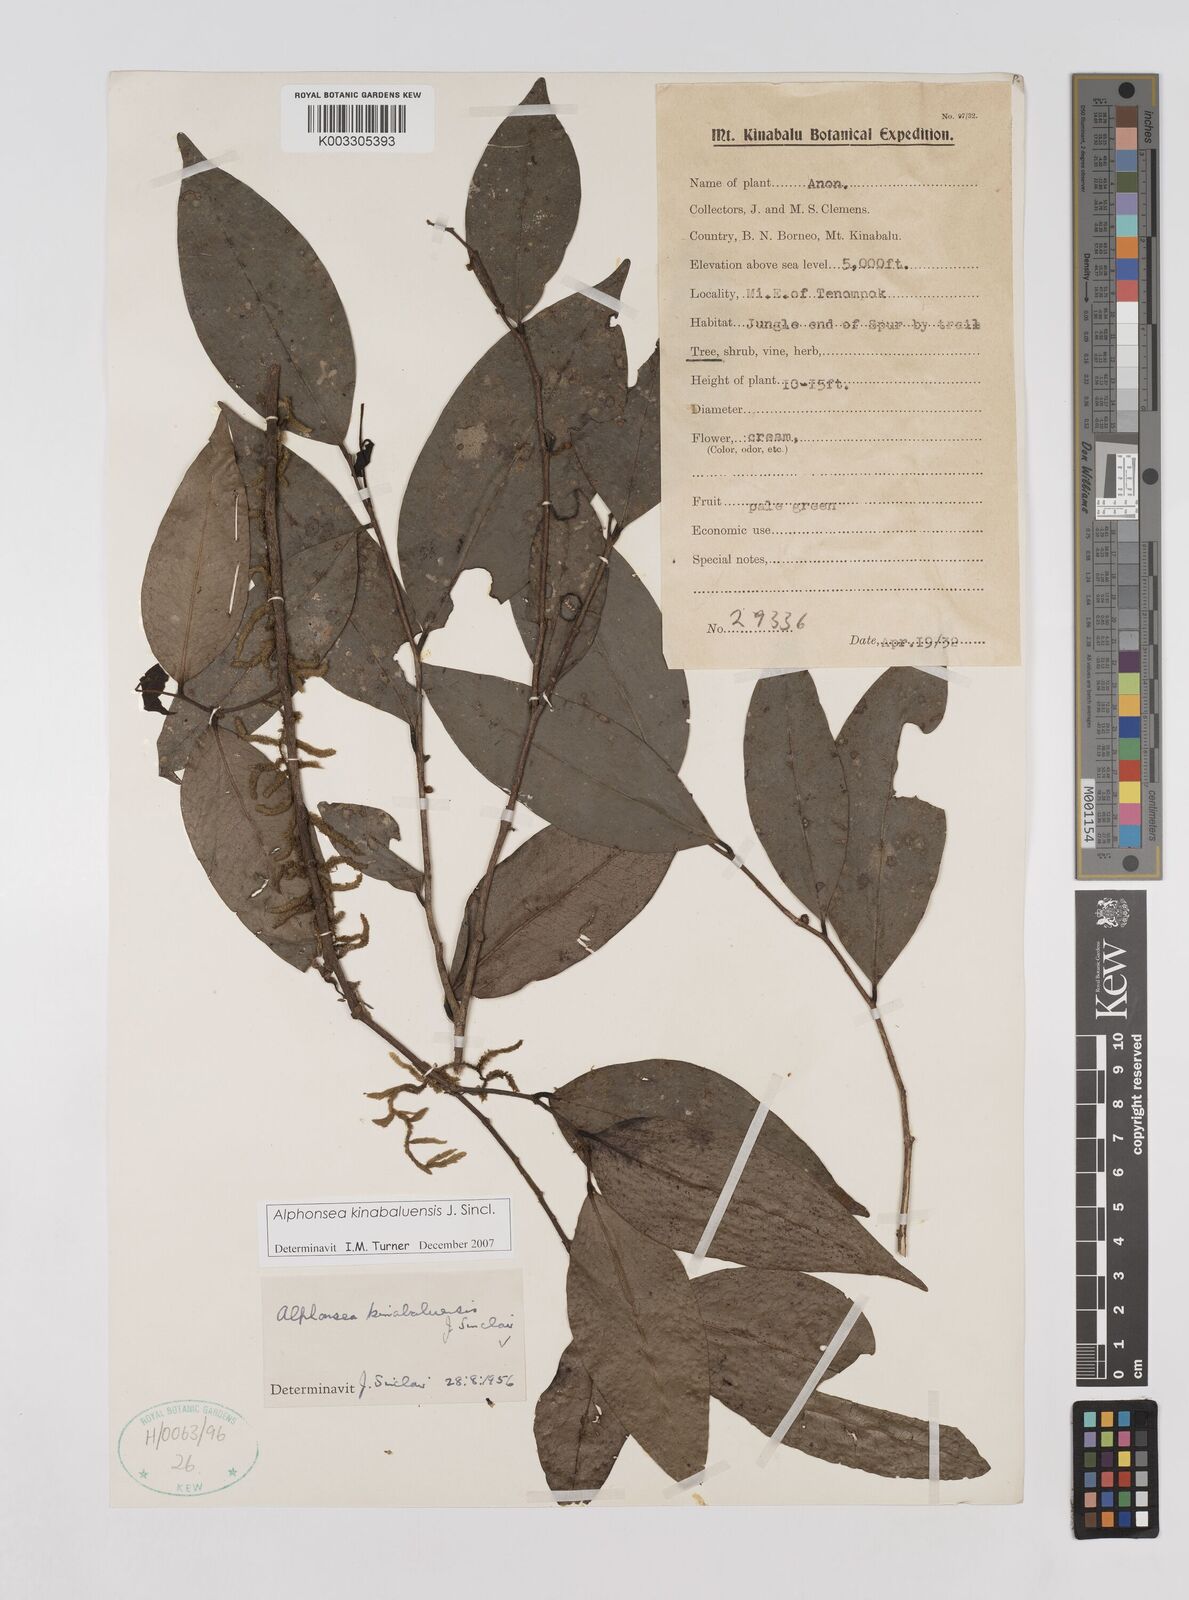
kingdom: Plantae
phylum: Tracheophyta
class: Magnoliopsida
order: Magnoliales
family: Annonaceae
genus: Alphonsea
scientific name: Alphonsea kinabaluensis
